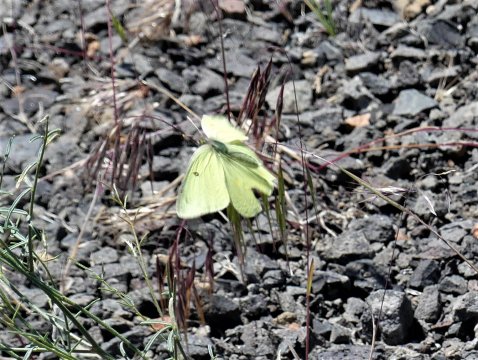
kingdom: Animalia
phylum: Arthropoda
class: Insecta
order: Lepidoptera
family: Pieridae
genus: Colias
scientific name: Colias alexandra
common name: Queen Alexandra's Sulphur
